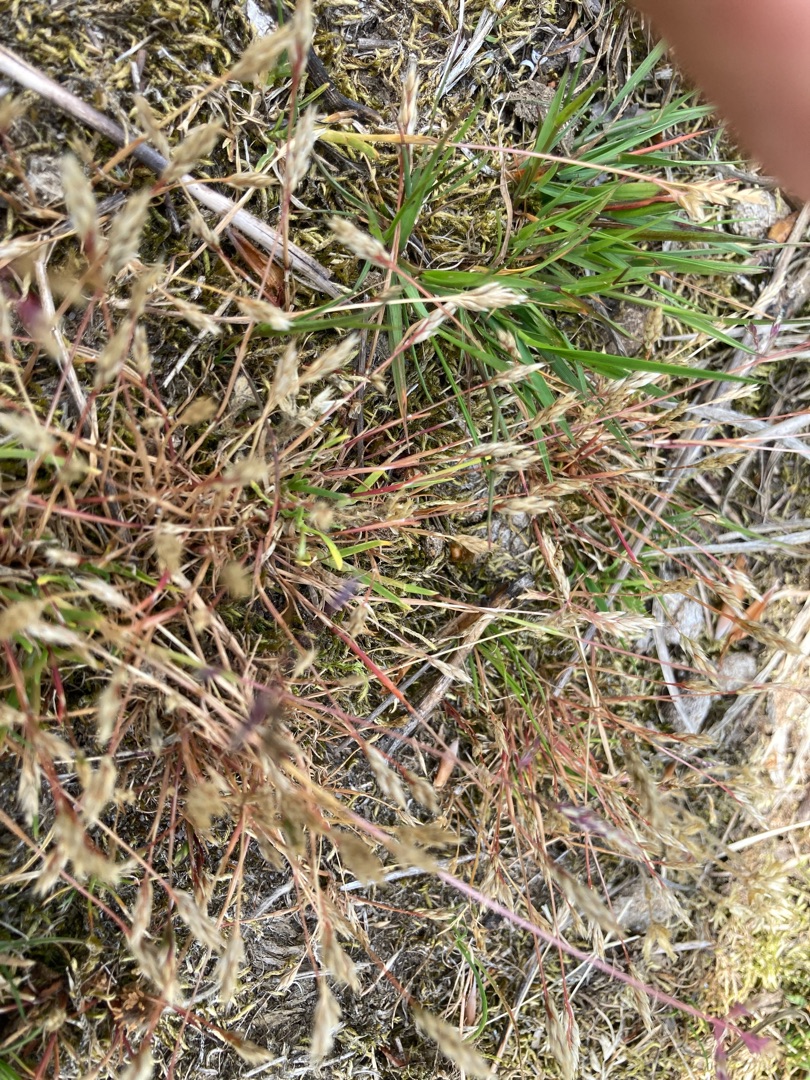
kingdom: Plantae
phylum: Tracheophyta
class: Liliopsida
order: Poales
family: Poaceae
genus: Aira
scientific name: Aira praecox
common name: Tidlig dværgbunke
